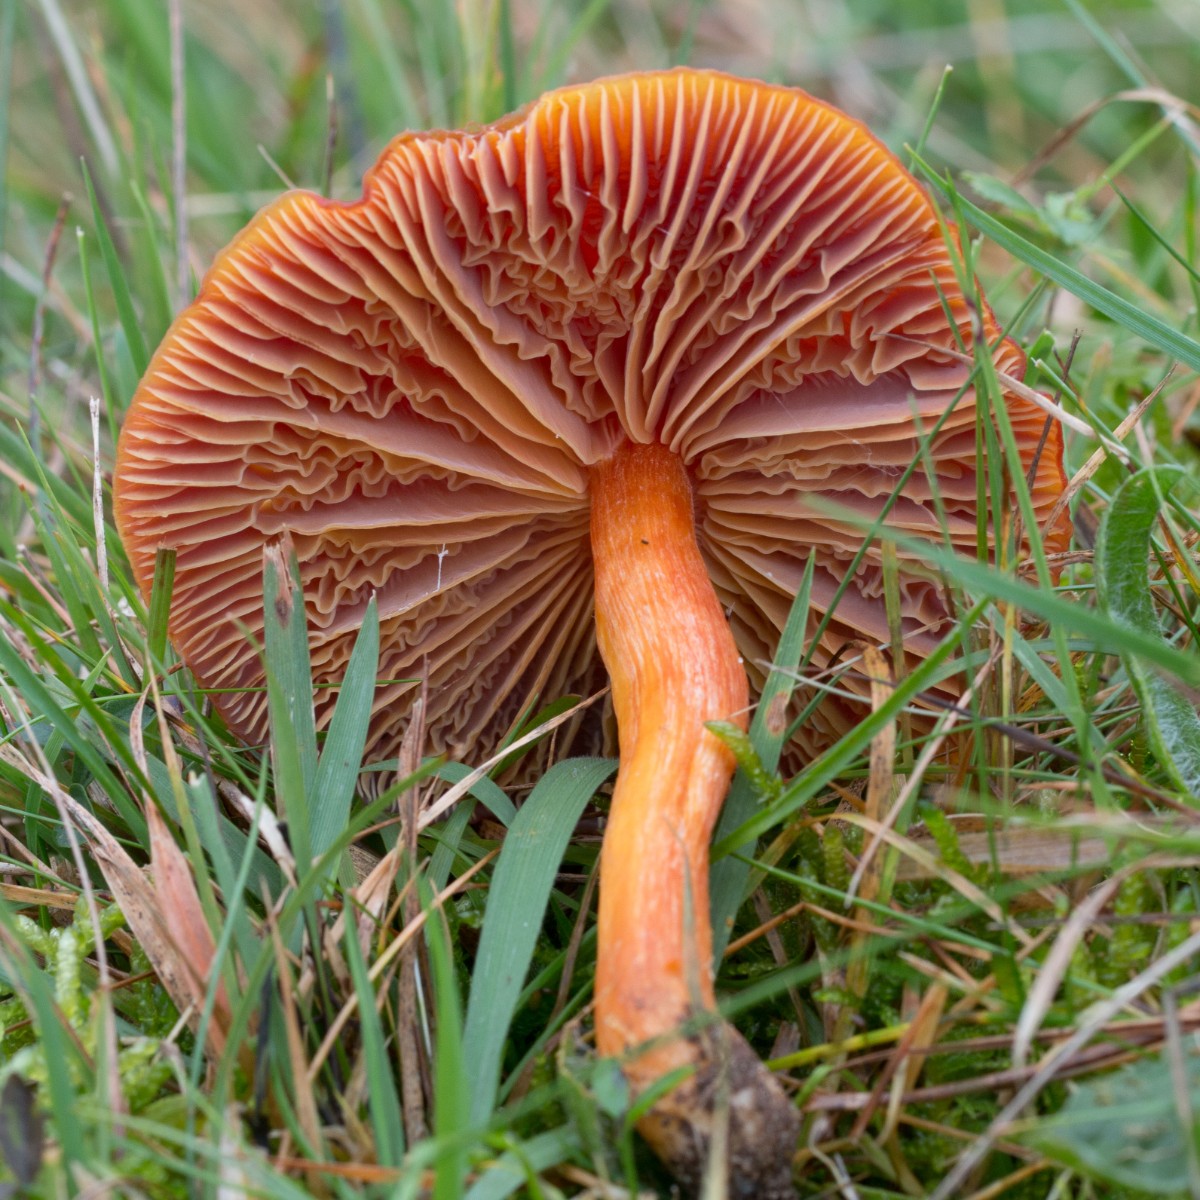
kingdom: Fungi
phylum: Basidiomycota
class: Agaricomycetes
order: Agaricales
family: Hygrophoraceae
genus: Hygrocybe
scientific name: Hygrocybe punicea
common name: skarlagen-vokshat
